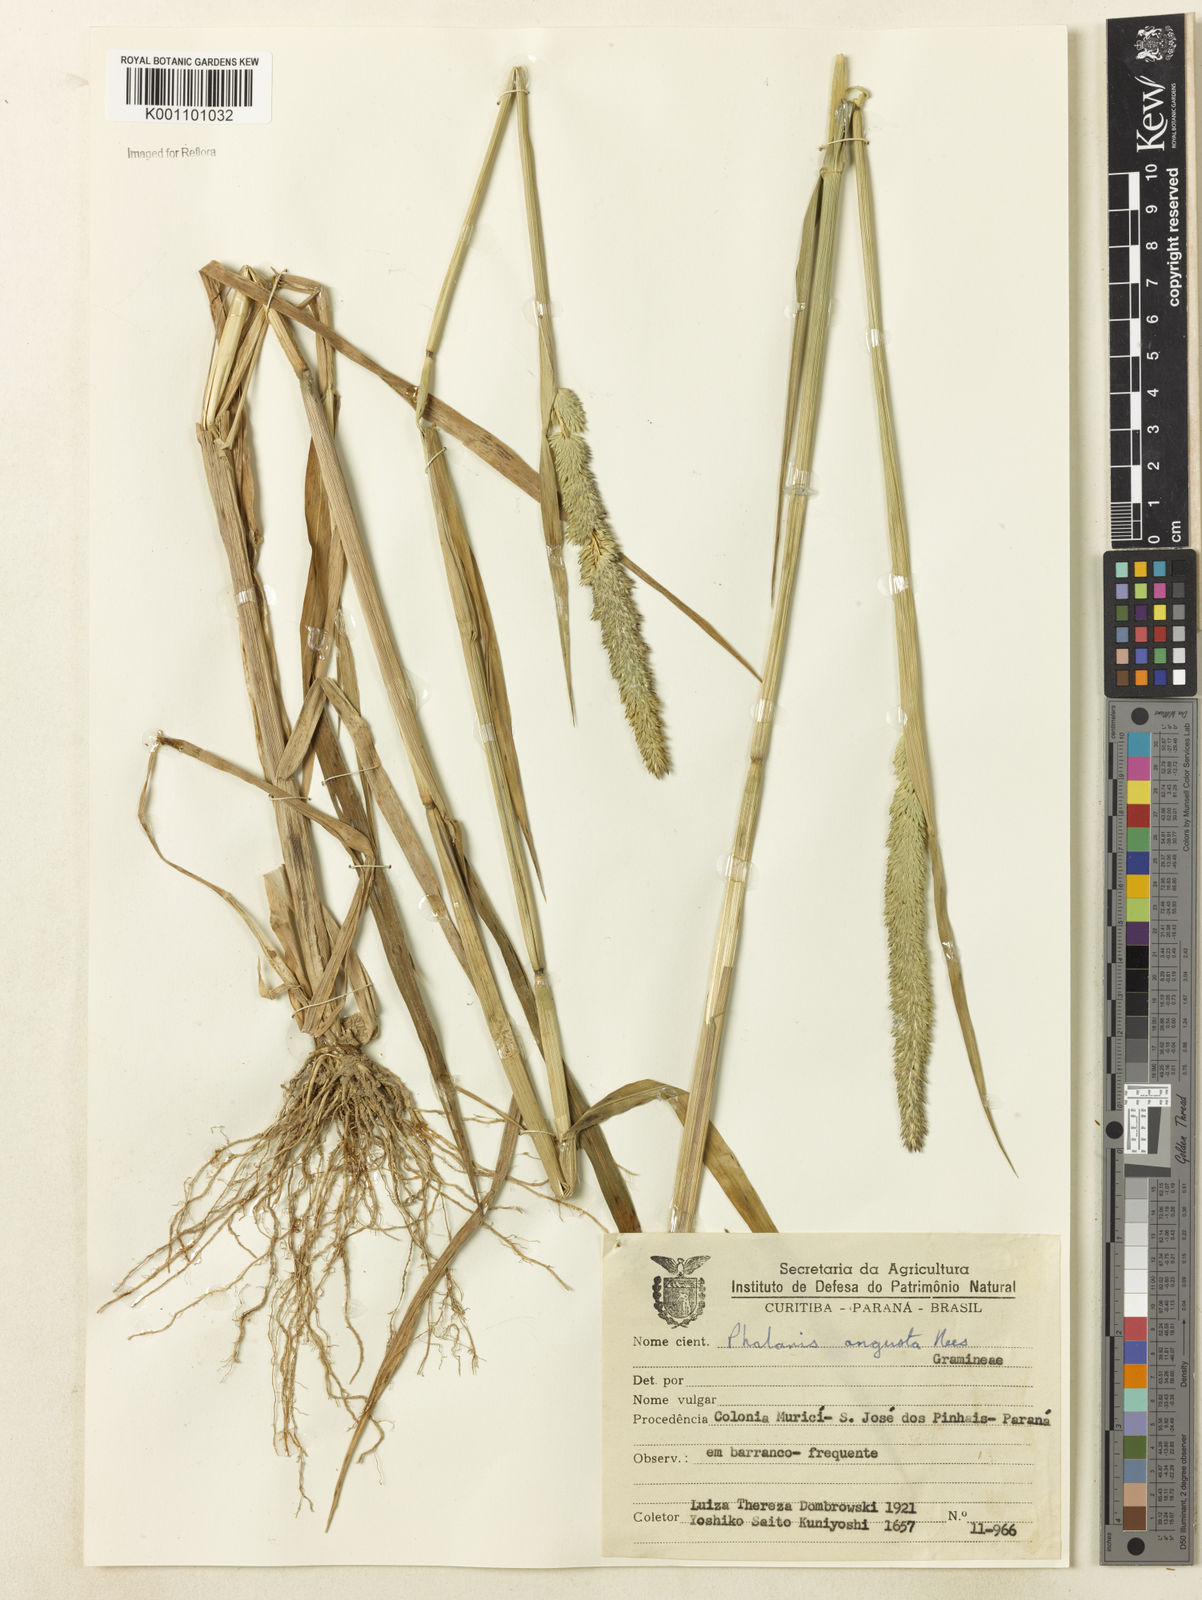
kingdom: Plantae
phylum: Tracheophyta
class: Liliopsida
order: Poales
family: Poaceae
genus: Phalaris
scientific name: Phalaris angusta
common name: Narrow canary grass
